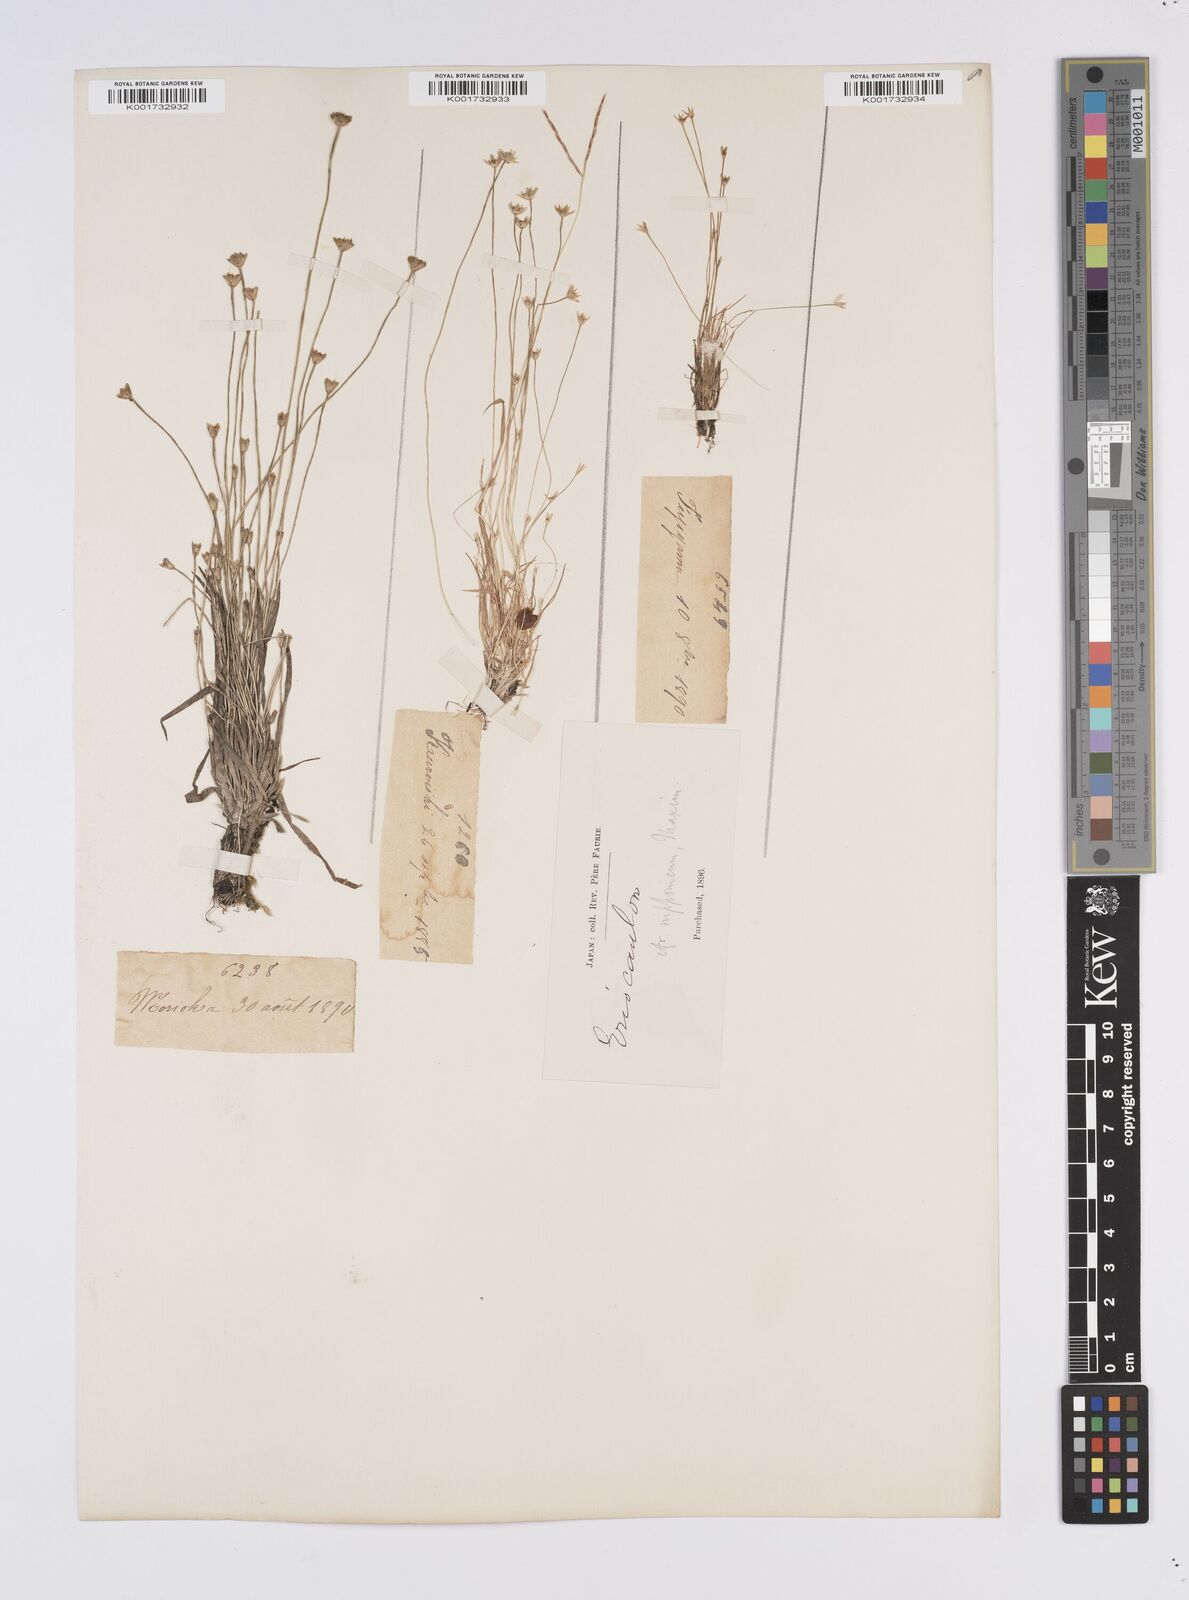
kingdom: Plantae
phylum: Tracheophyta
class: Liliopsida
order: Poales
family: Eriocaulaceae
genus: Eriocaulon
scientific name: Eriocaulon decemflorum
